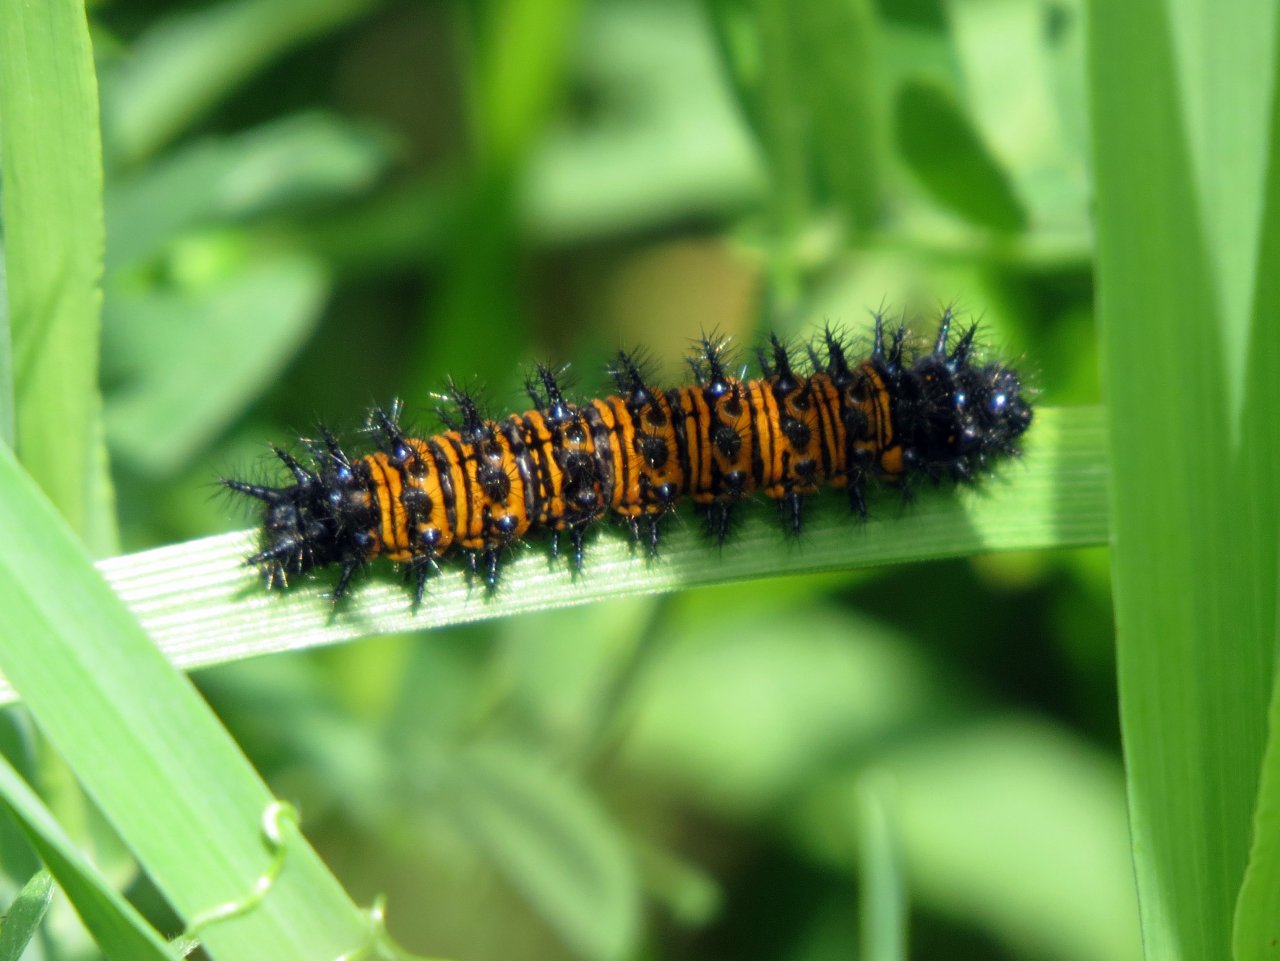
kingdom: Animalia
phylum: Arthropoda
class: Insecta
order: Lepidoptera
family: Nymphalidae
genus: Euphydryas
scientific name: Euphydryas phaeton
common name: Baltimore Checkerspot
